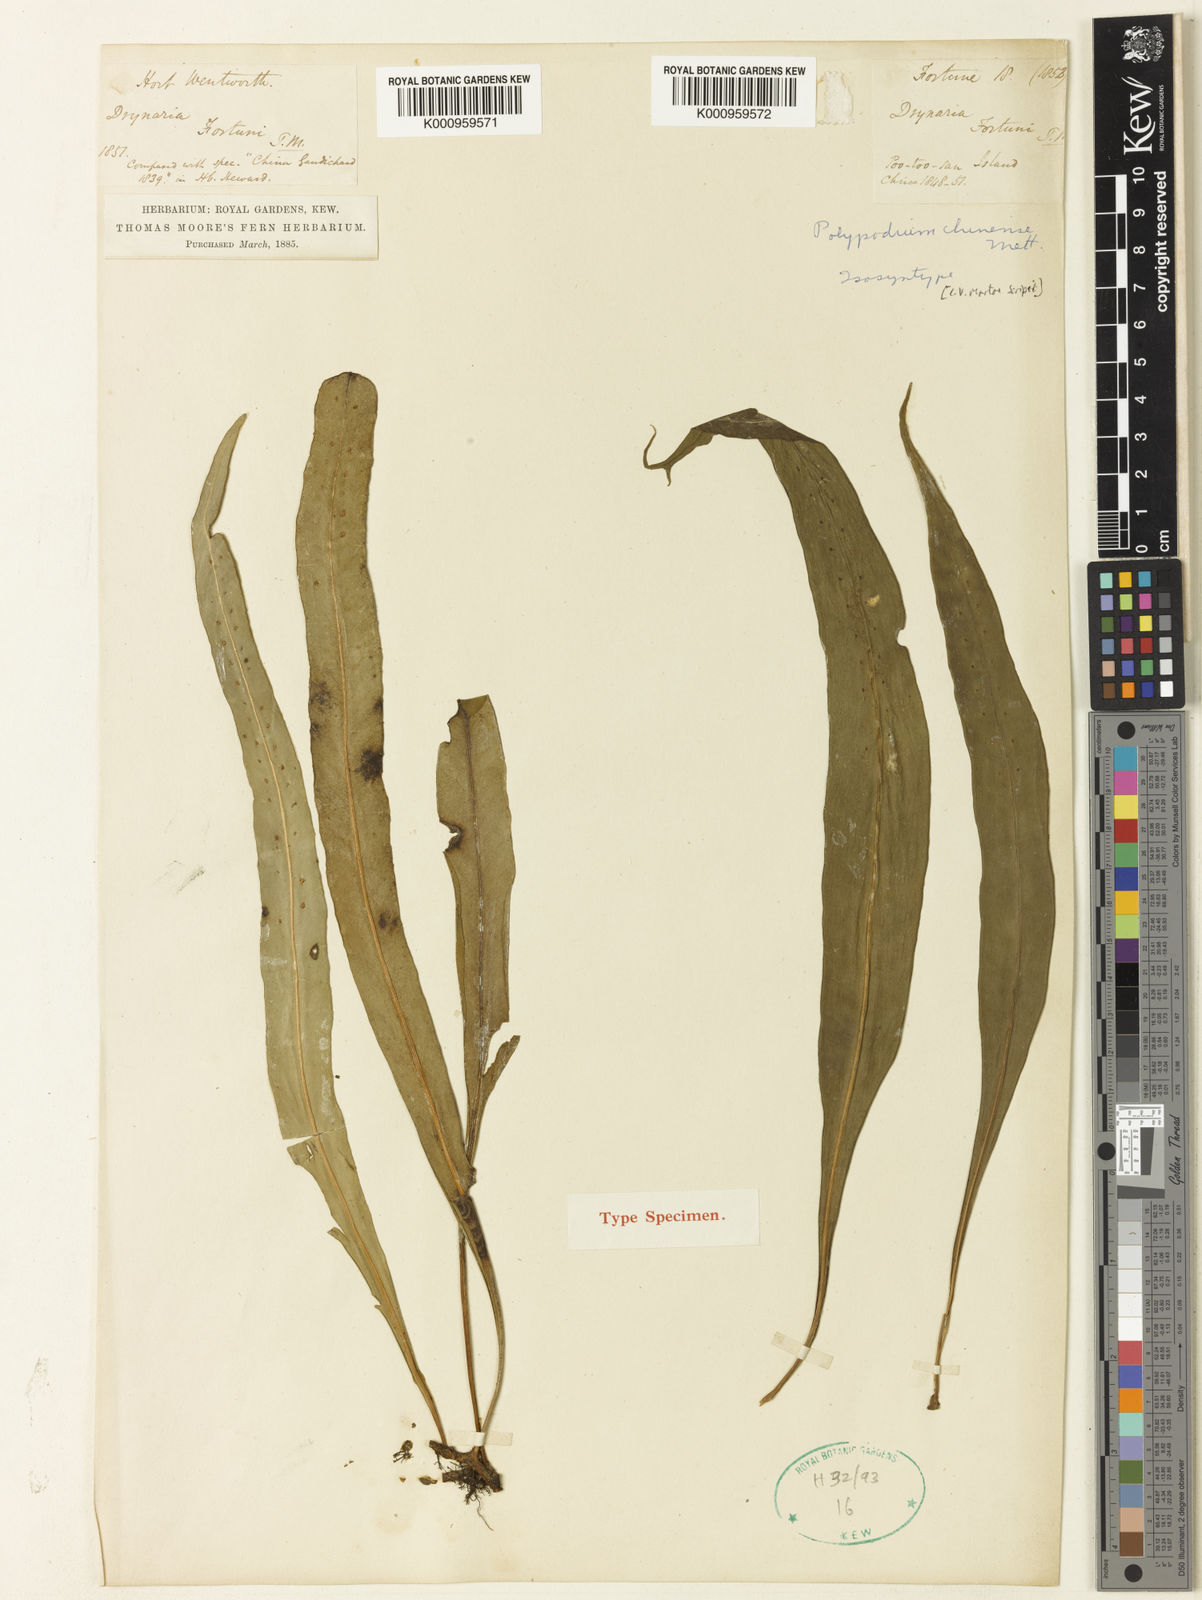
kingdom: Plantae
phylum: Tracheophyta
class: Polypodiopsida
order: Polypodiales
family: Polypodiaceae
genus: Lepisorus
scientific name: Lepisorus nudus
